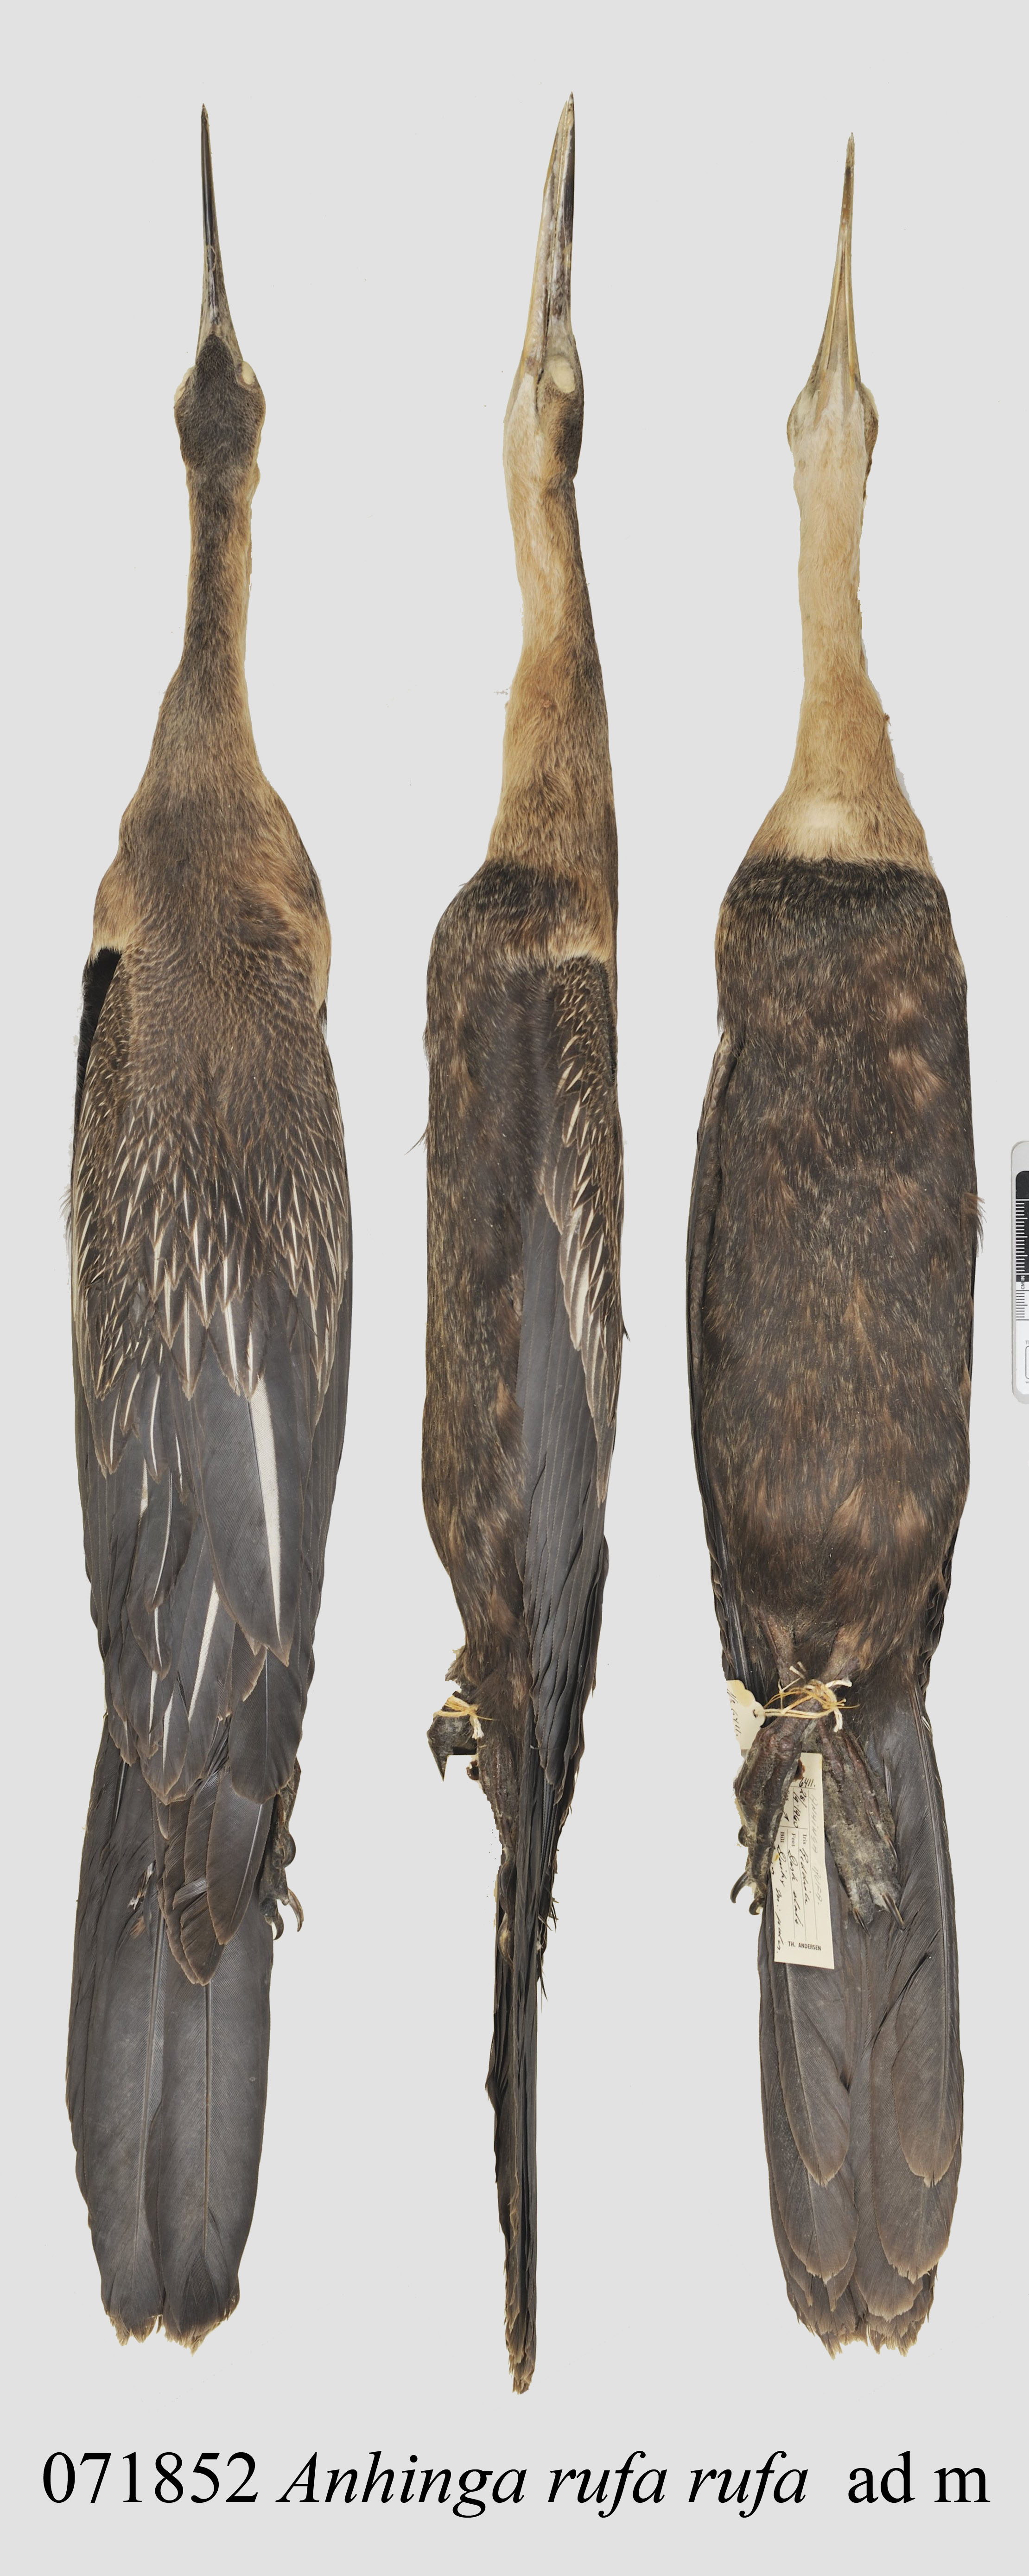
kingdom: Animalia
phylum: Chordata
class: Aves
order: Suliformes
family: Anhingidae
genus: Anhinga
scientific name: Anhinga rufa
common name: African darter
